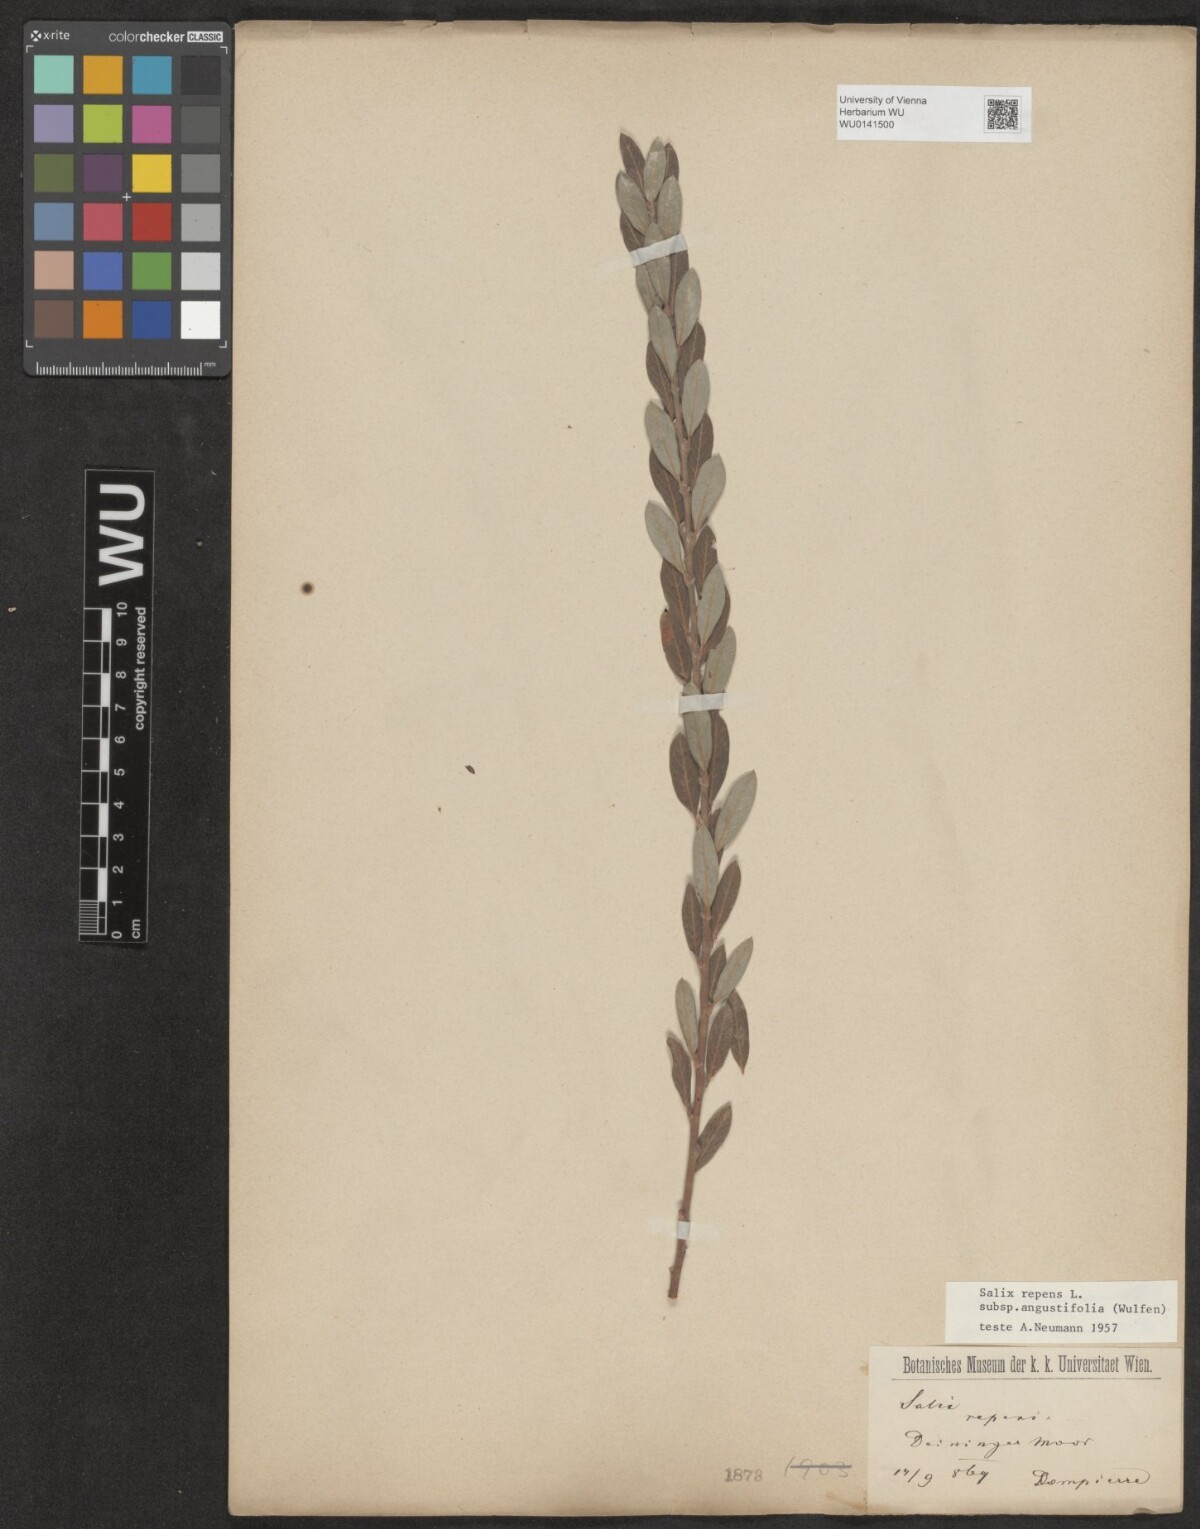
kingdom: Plantae
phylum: Tracheophyta
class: Magnoliopsida
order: Malpighiales
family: Salicaceae
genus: Salix
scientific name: Salix rosmarinifolia
